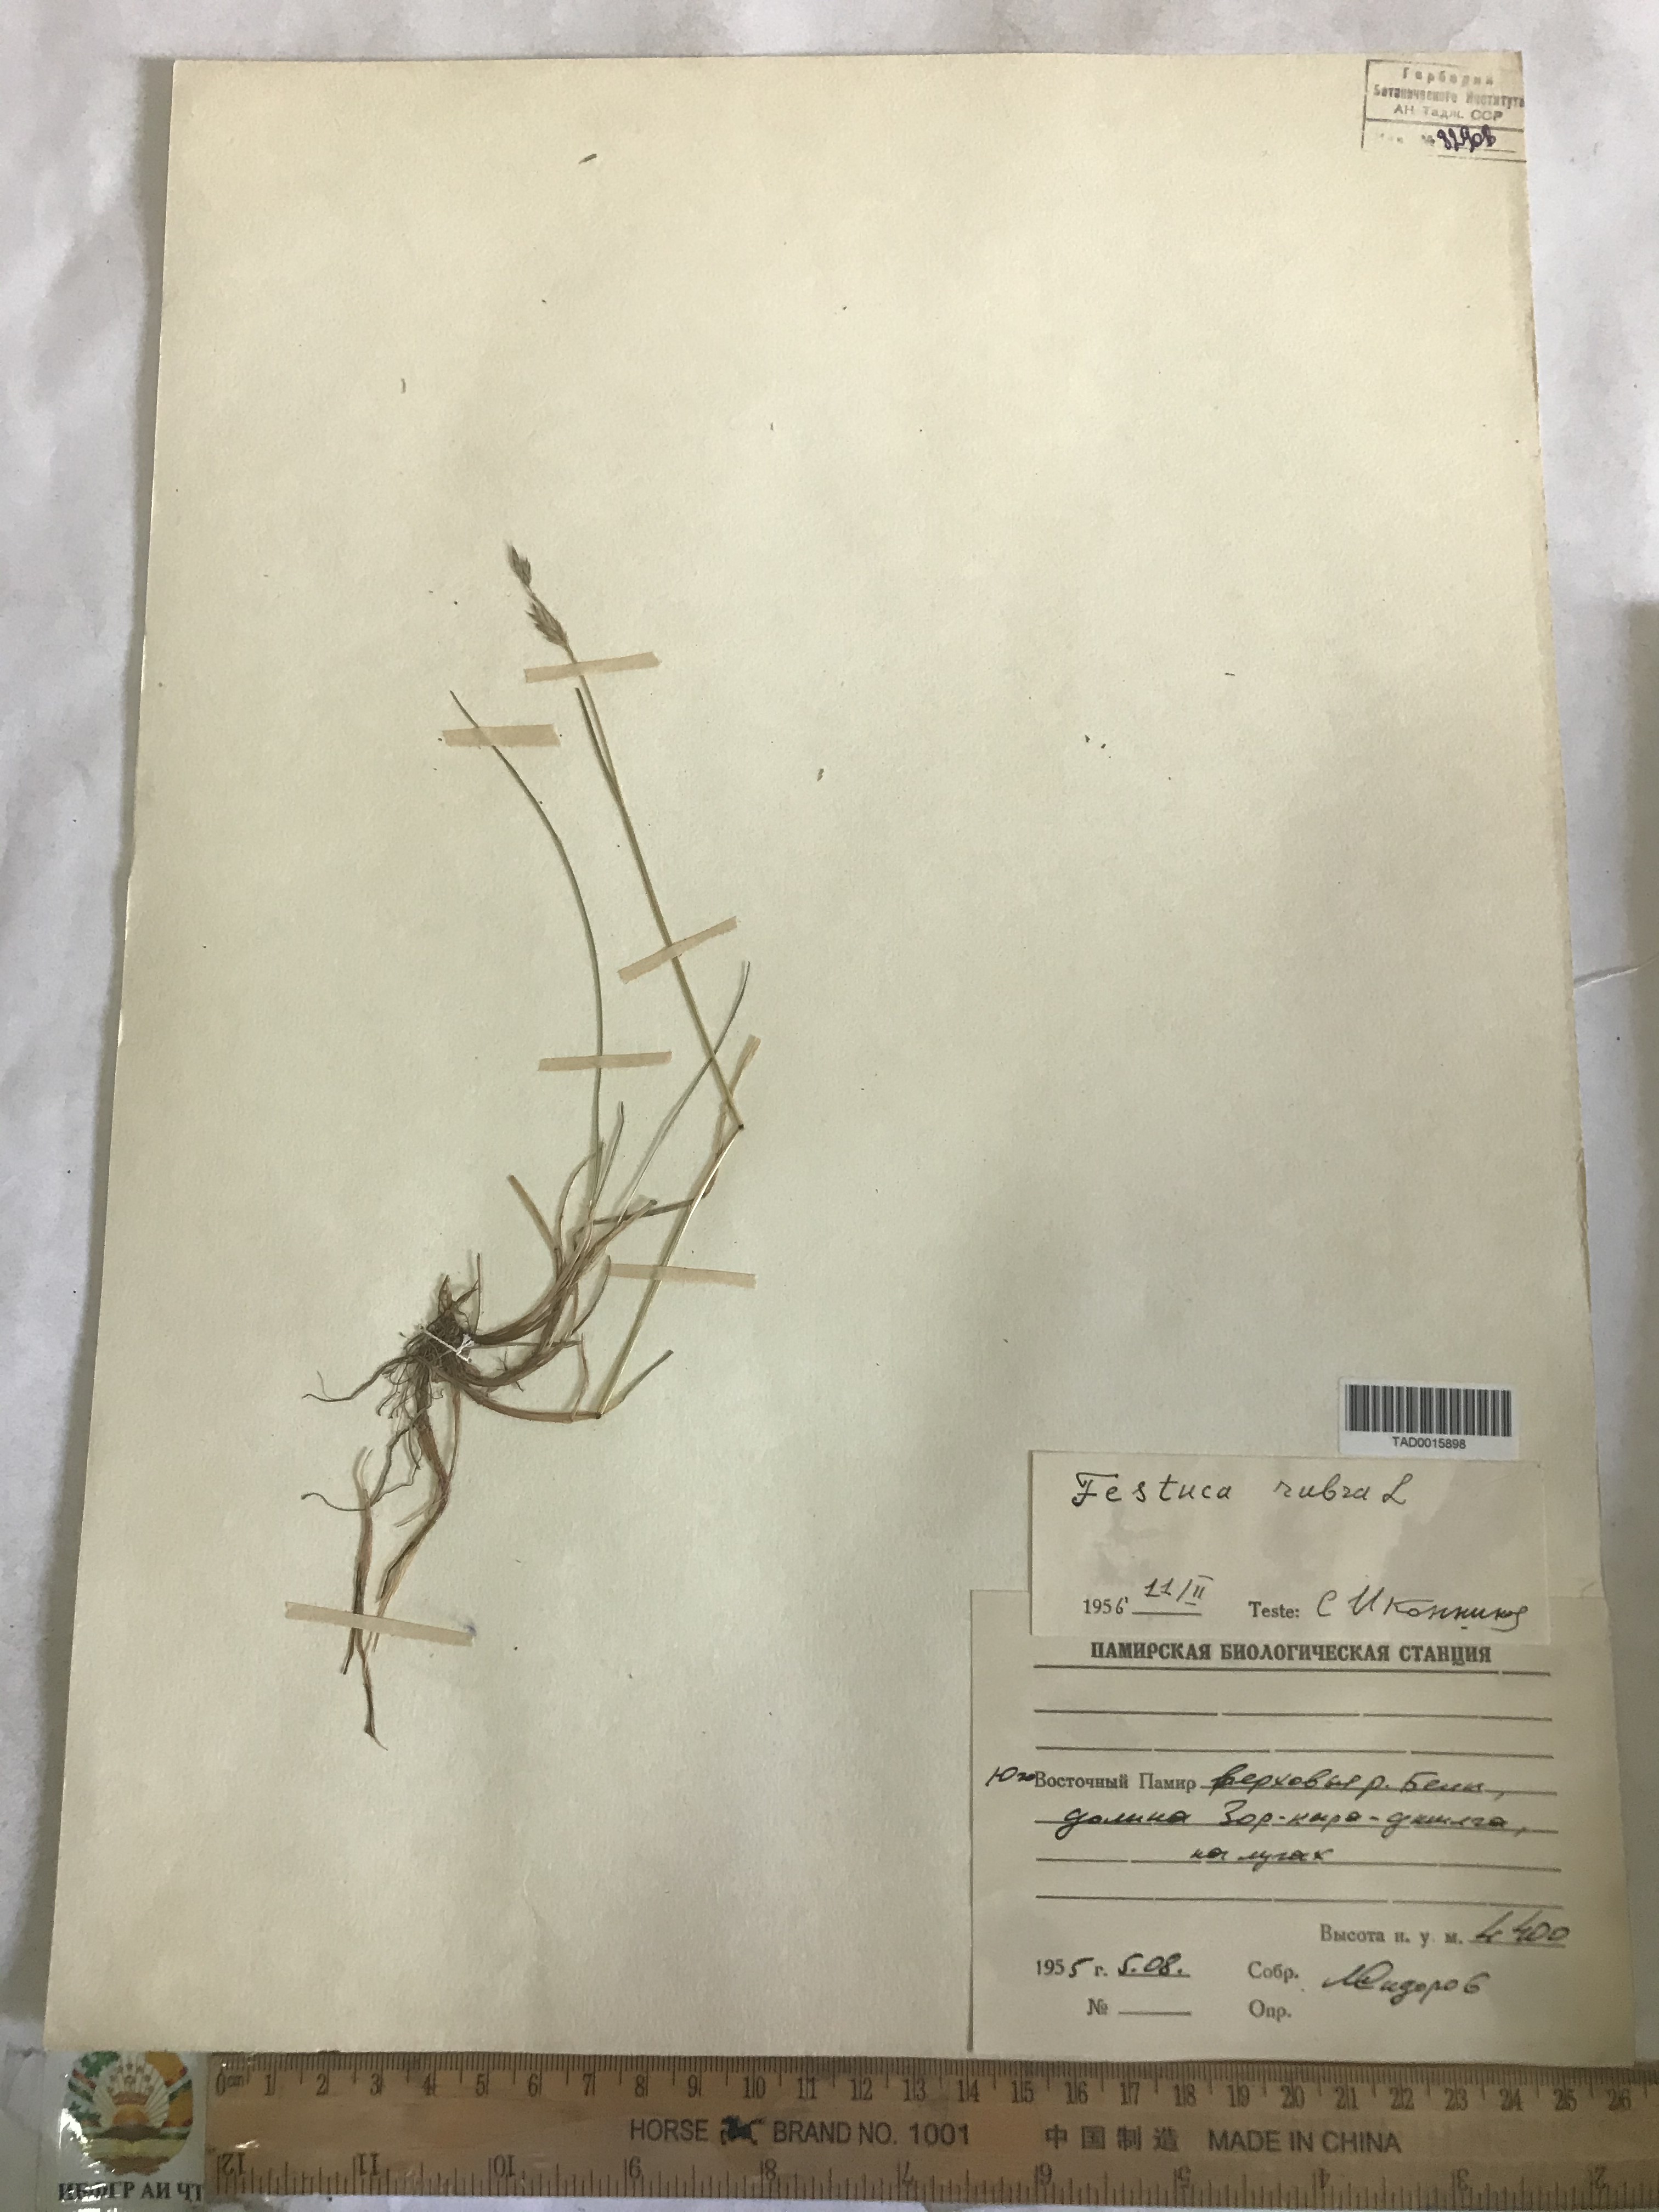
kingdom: Plantae
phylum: Tracheophyta
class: Liliopsida
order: Poales
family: Poaceae
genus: Festuca
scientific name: Festuca rubra
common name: Red fescue
